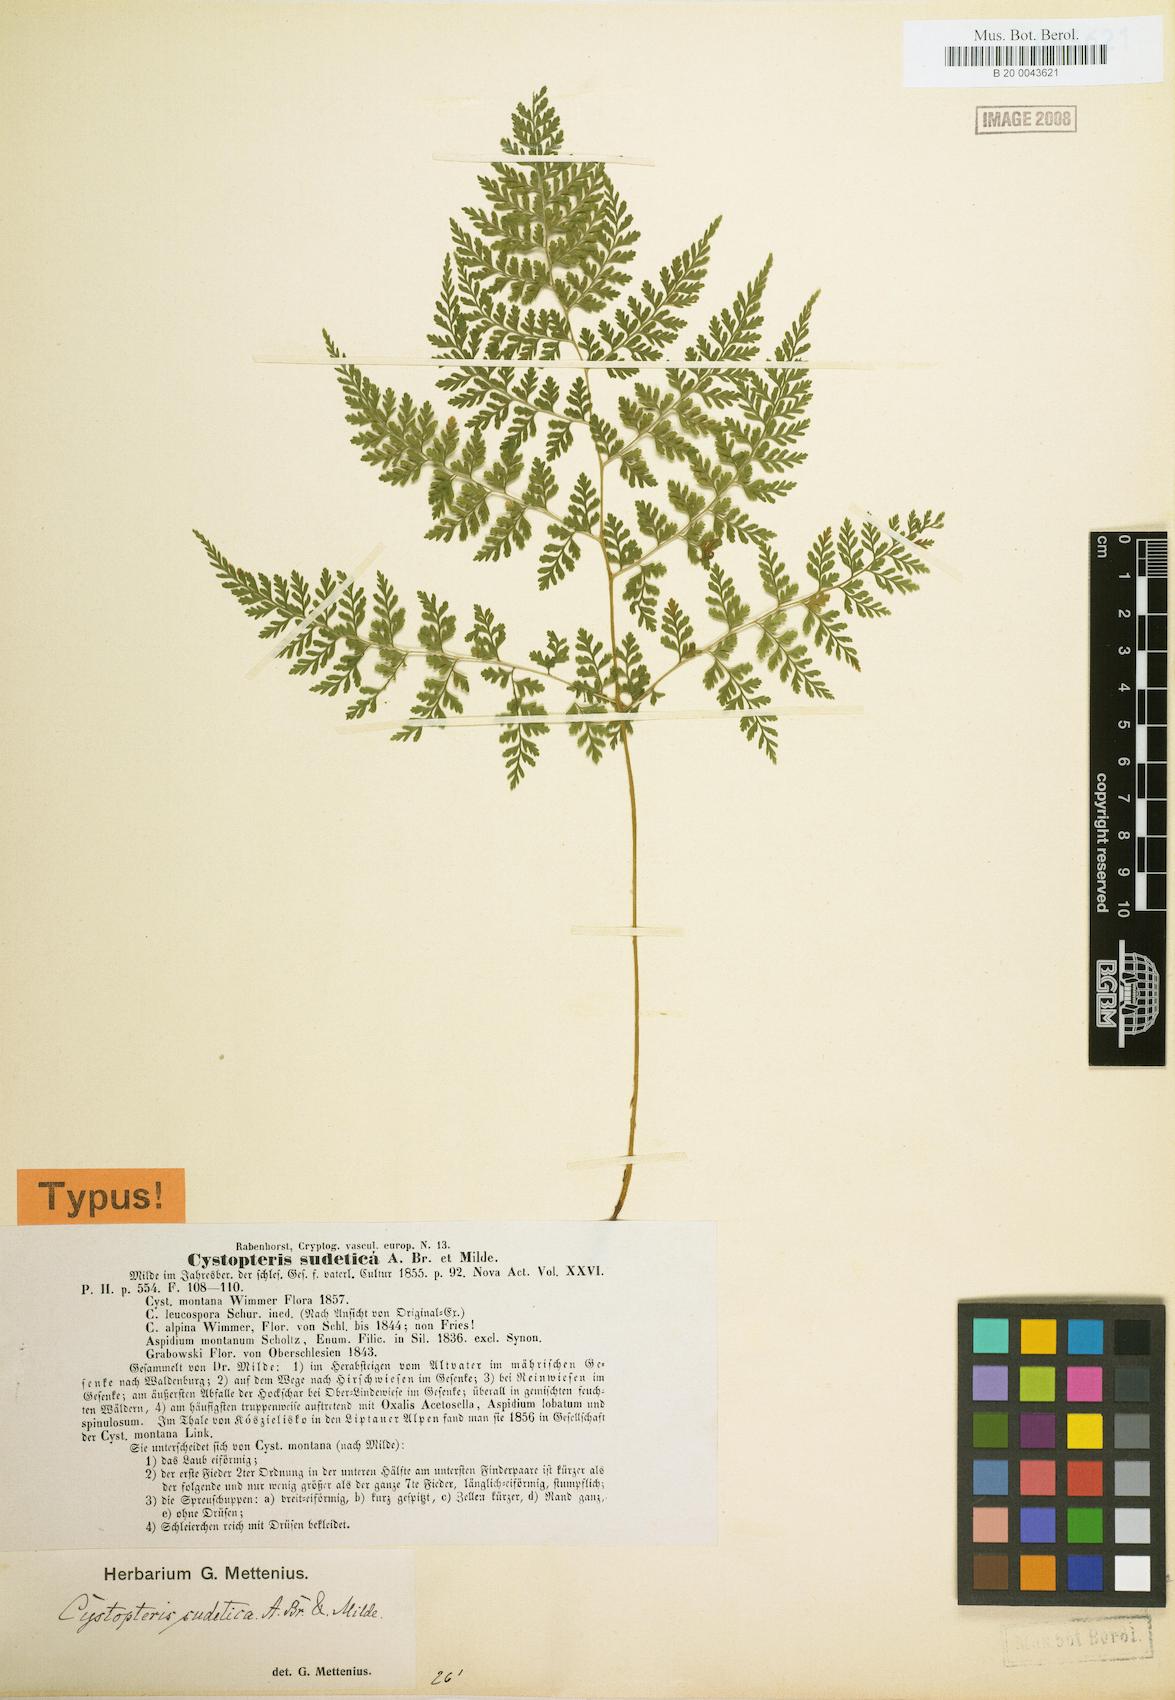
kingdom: Plantae
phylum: Tracheophyta
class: Polypodiopsida
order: Polypodiales
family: Cystopteridaceae
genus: Cystopteris
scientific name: Cystopteris sudetica
